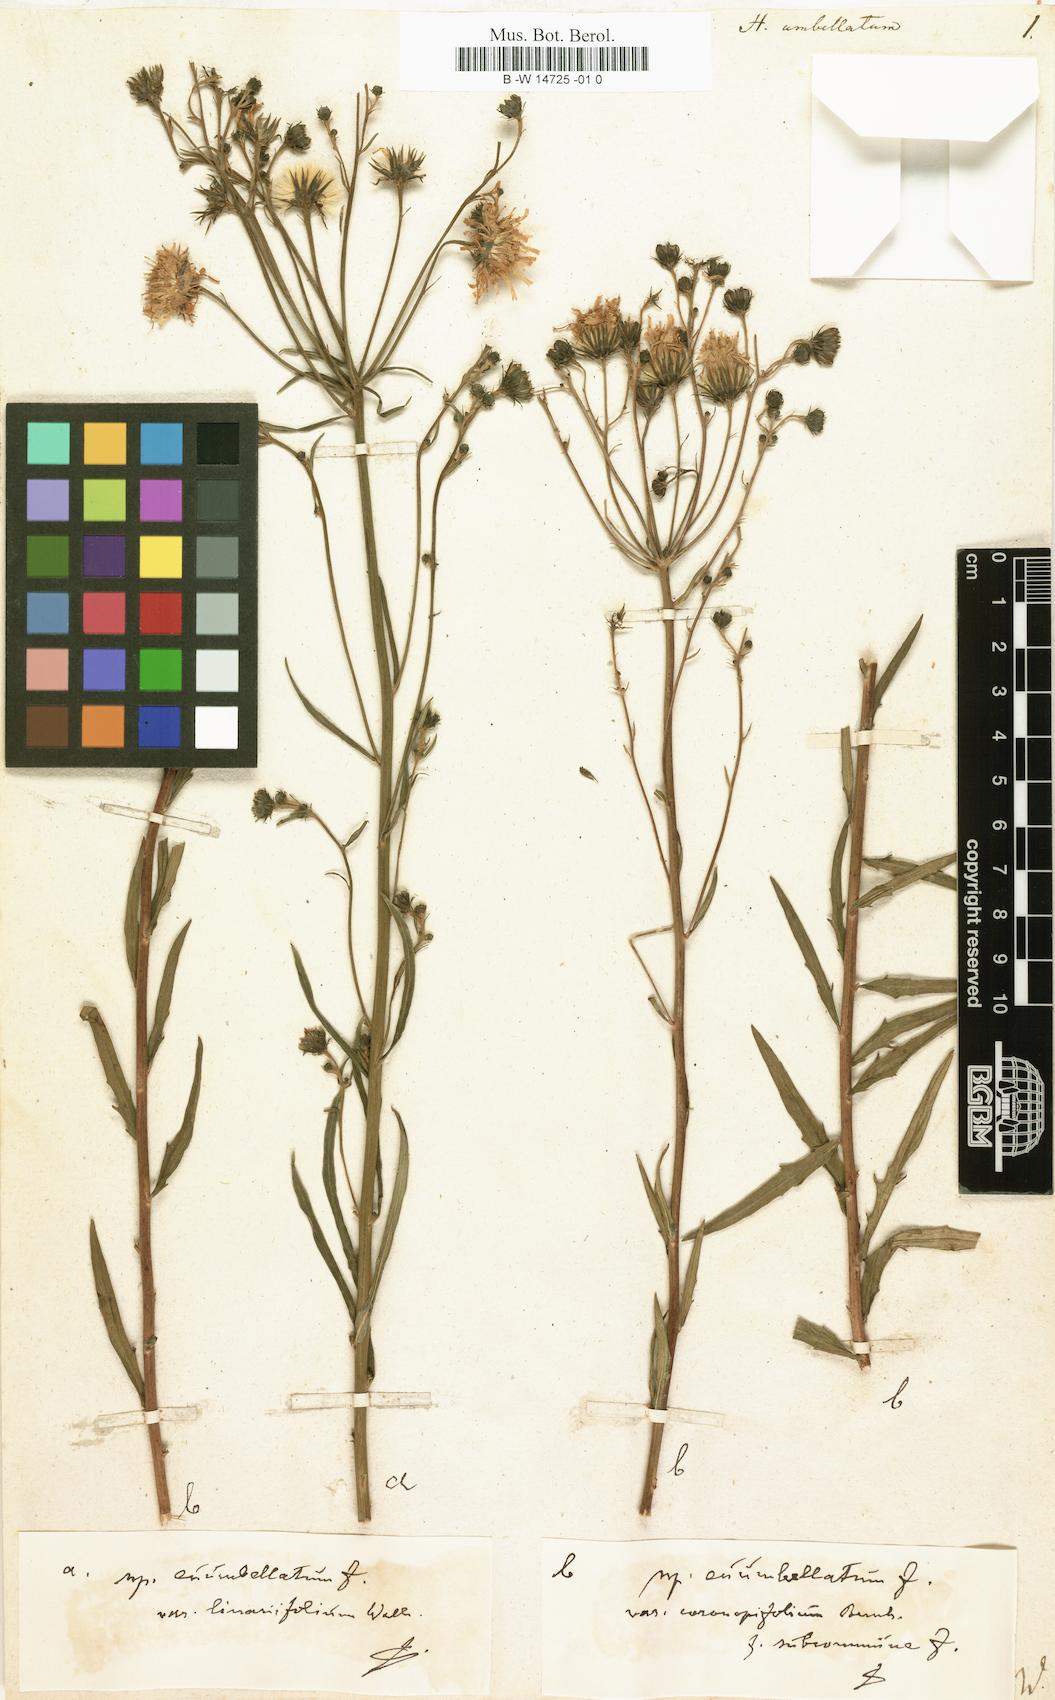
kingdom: Plantae
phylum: Tracheophyta
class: Magnoliopsida
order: Asterales
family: Asteraceae
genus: Hieracium
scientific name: Hieracium umbellatum
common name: Northern hawkweed
